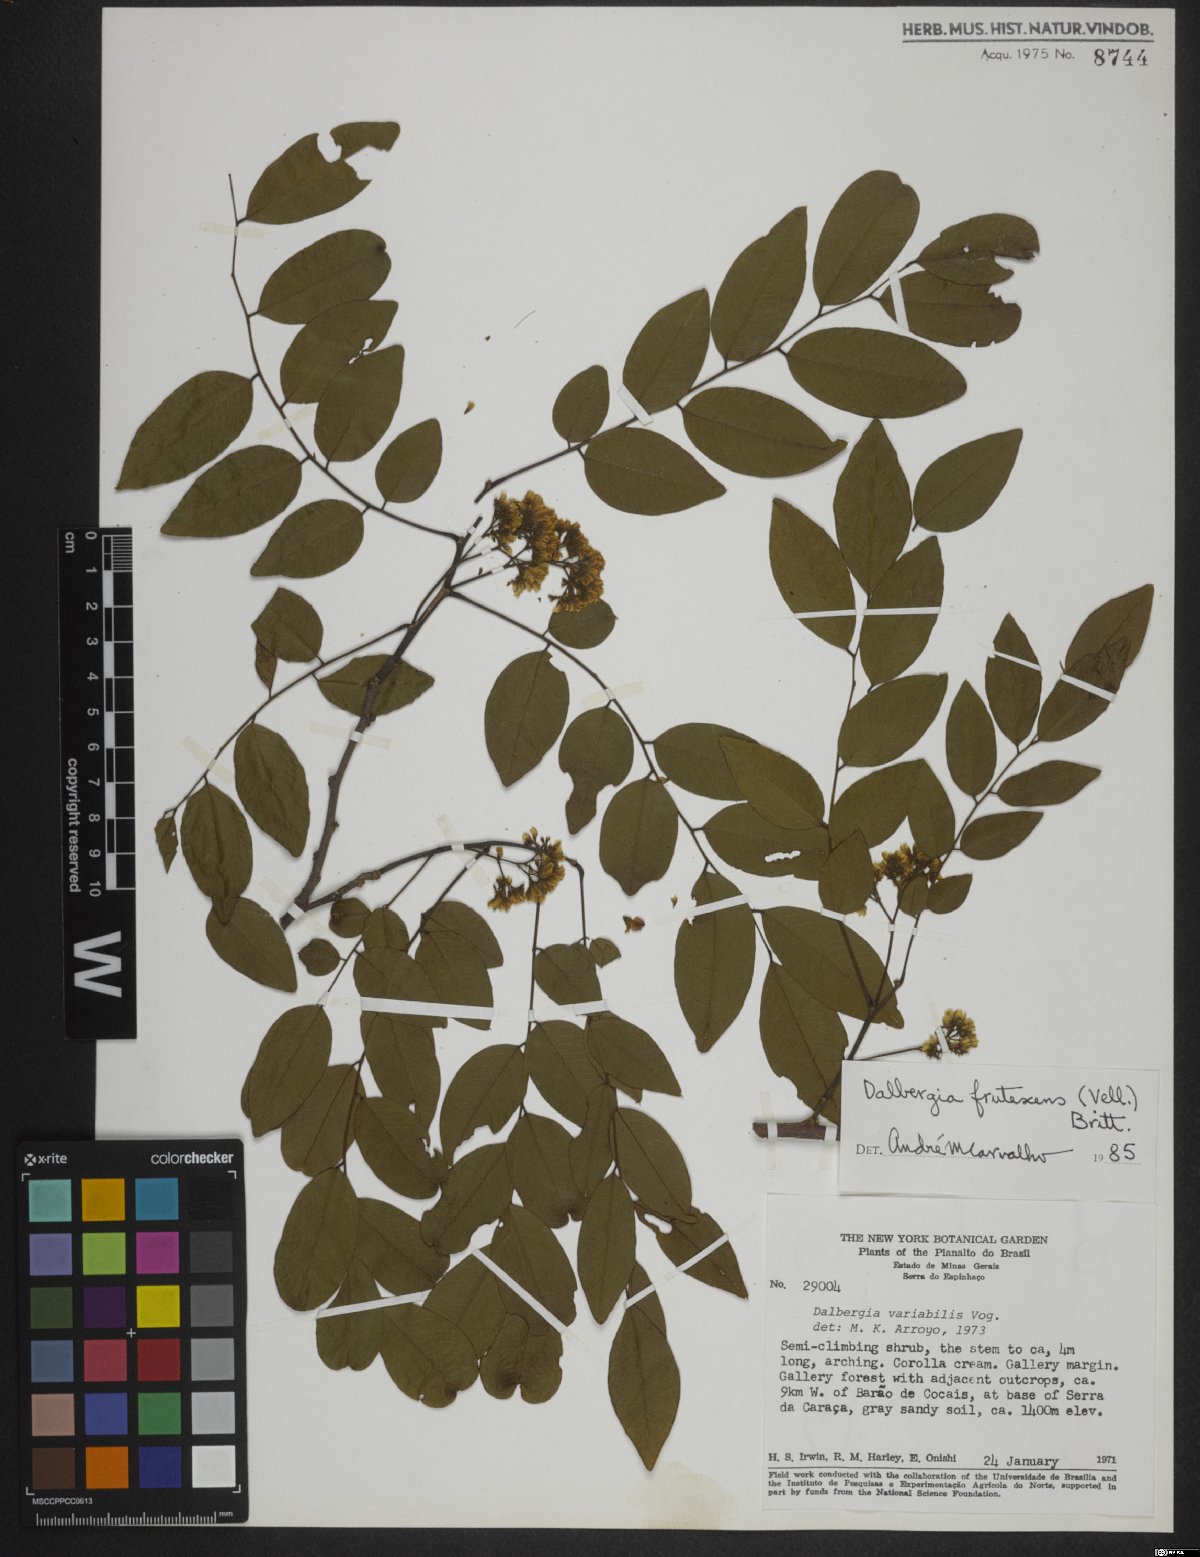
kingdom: Plantae
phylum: Tracheophyta
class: Magnoliopsida
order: Fabales
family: Fabaceae
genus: Dalbergia
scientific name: Dalbergia frutescens
